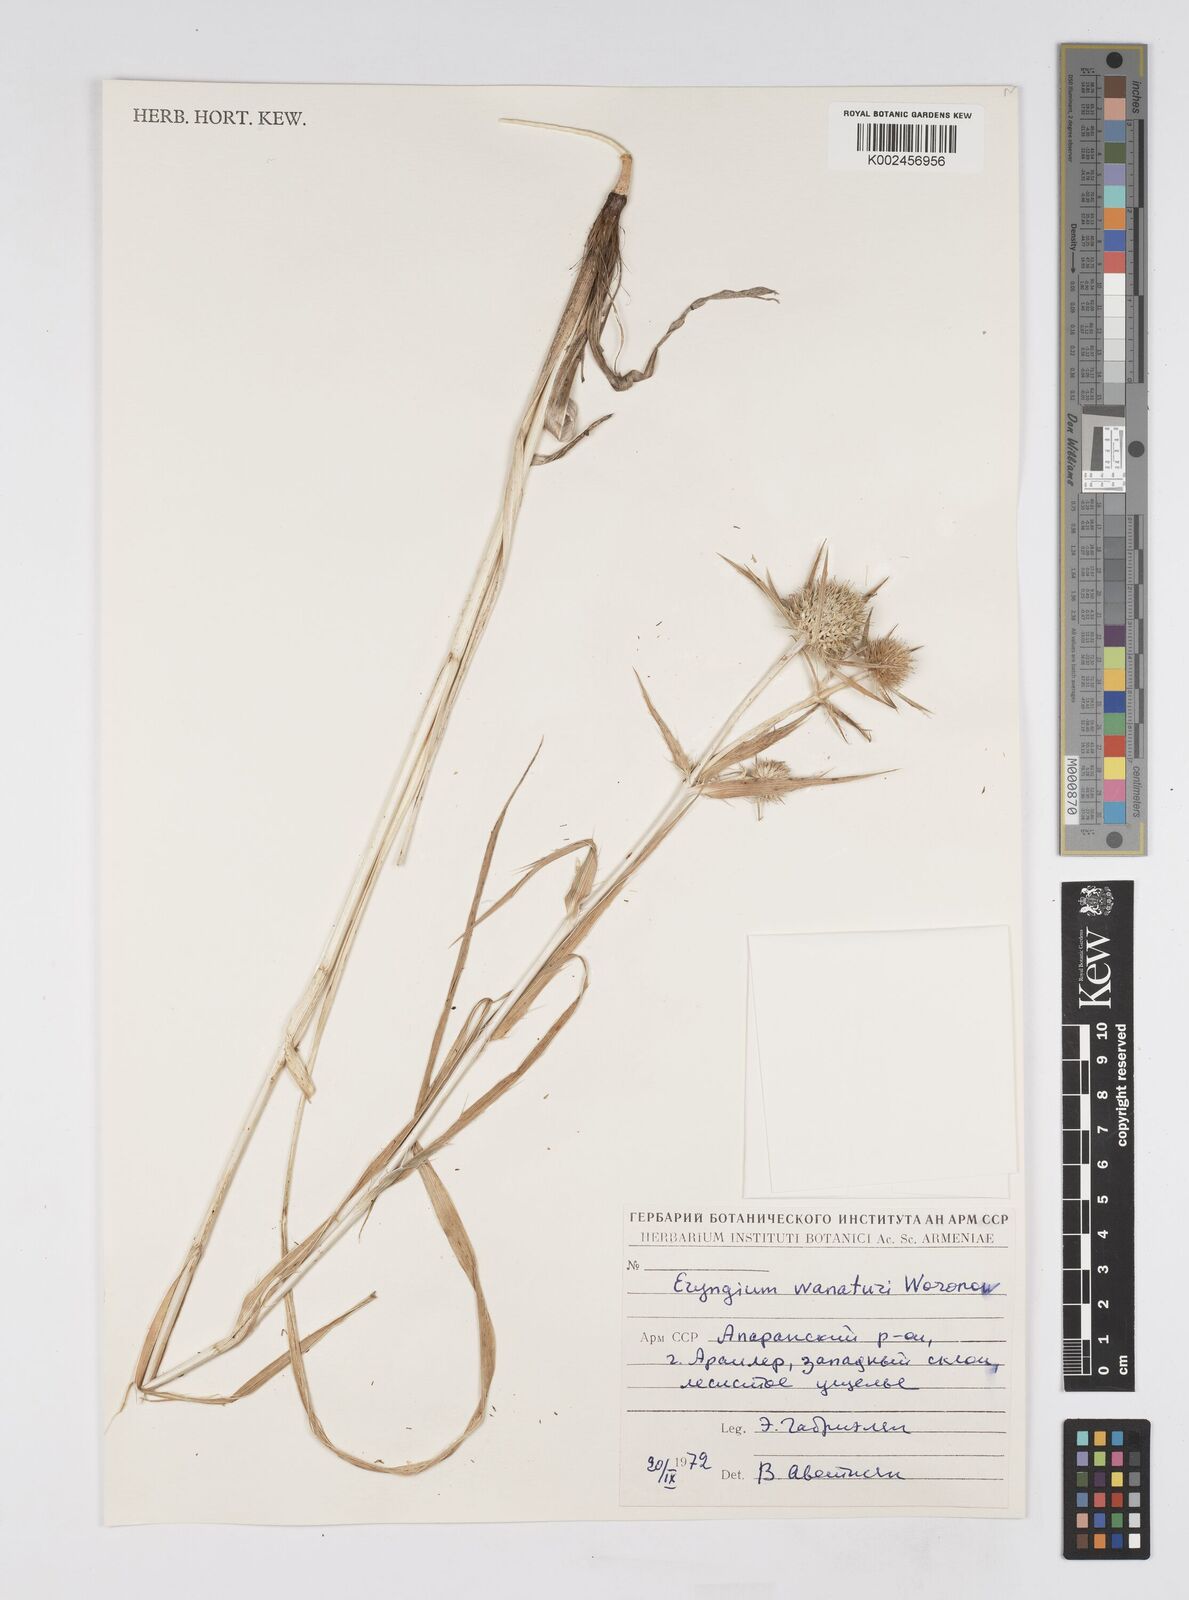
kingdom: Plantae
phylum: Tracheophyta
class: Magnoliopsida
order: Apiales
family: Apiaceae
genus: Eryngium
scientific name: Eryngium wanaturi
